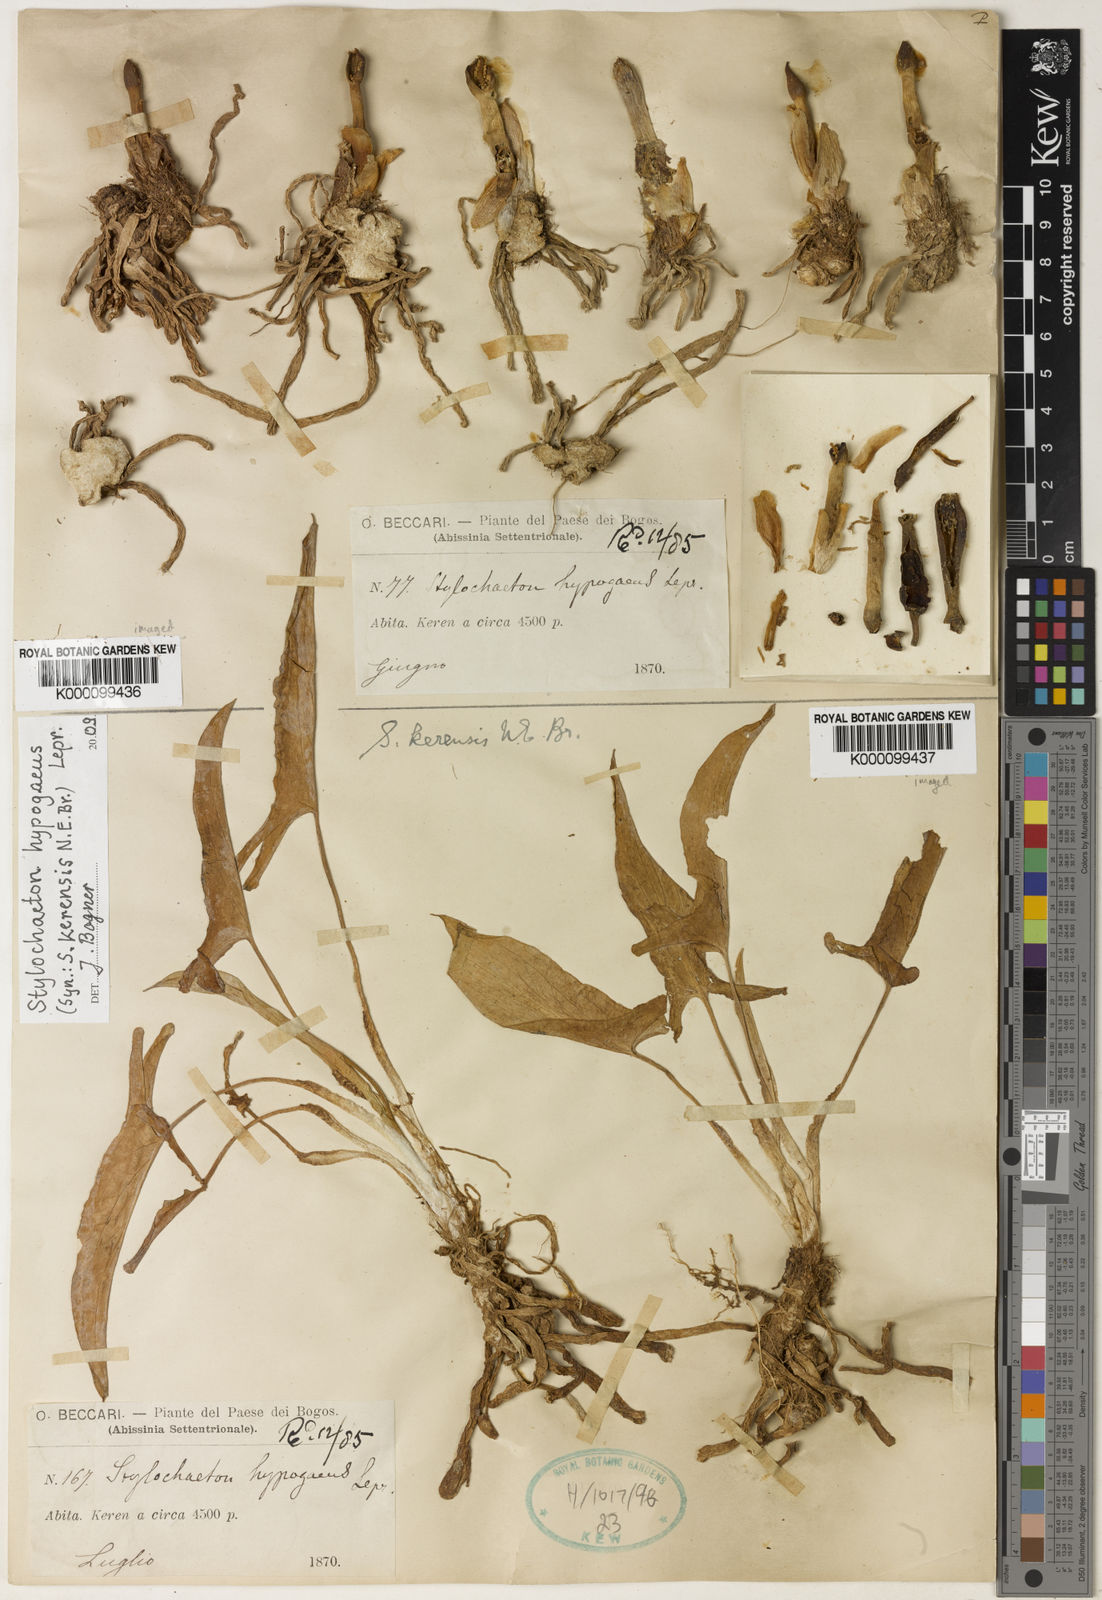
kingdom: Plantae
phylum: Tracheophyta
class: Liliopsida
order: Alismatales
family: Araceae
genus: Stylochaeton
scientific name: Stylochaeton
